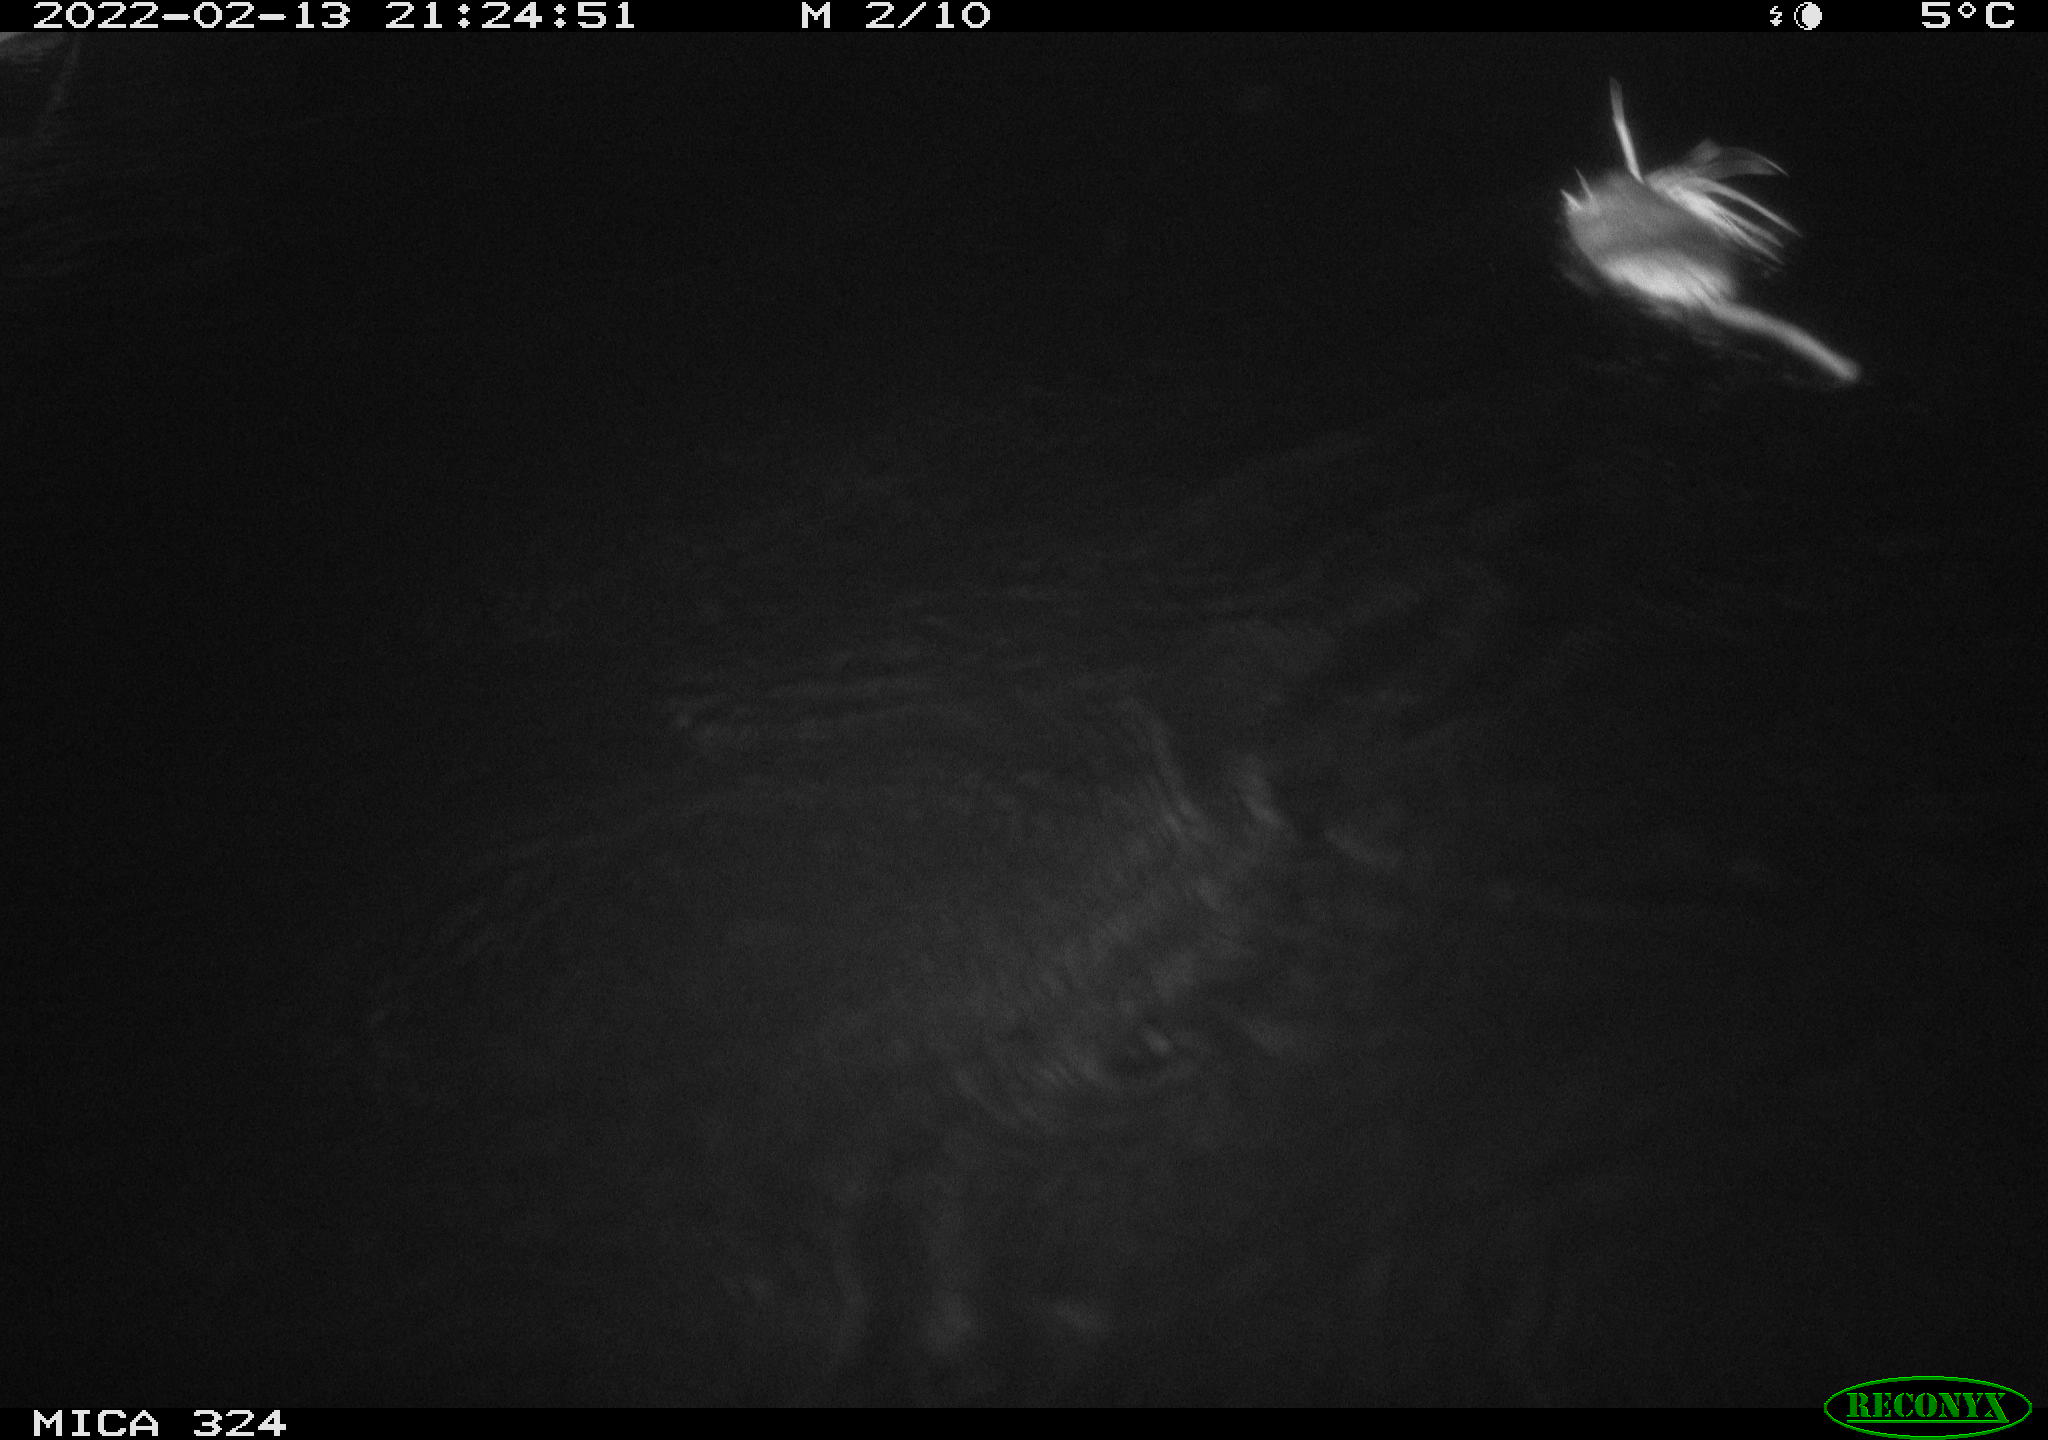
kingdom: Animalia
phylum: Chordata
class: Mammalia
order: Rodentia
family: Cricetidae
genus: Ondatra
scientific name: Ondatra zibethicus
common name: Muskrat
